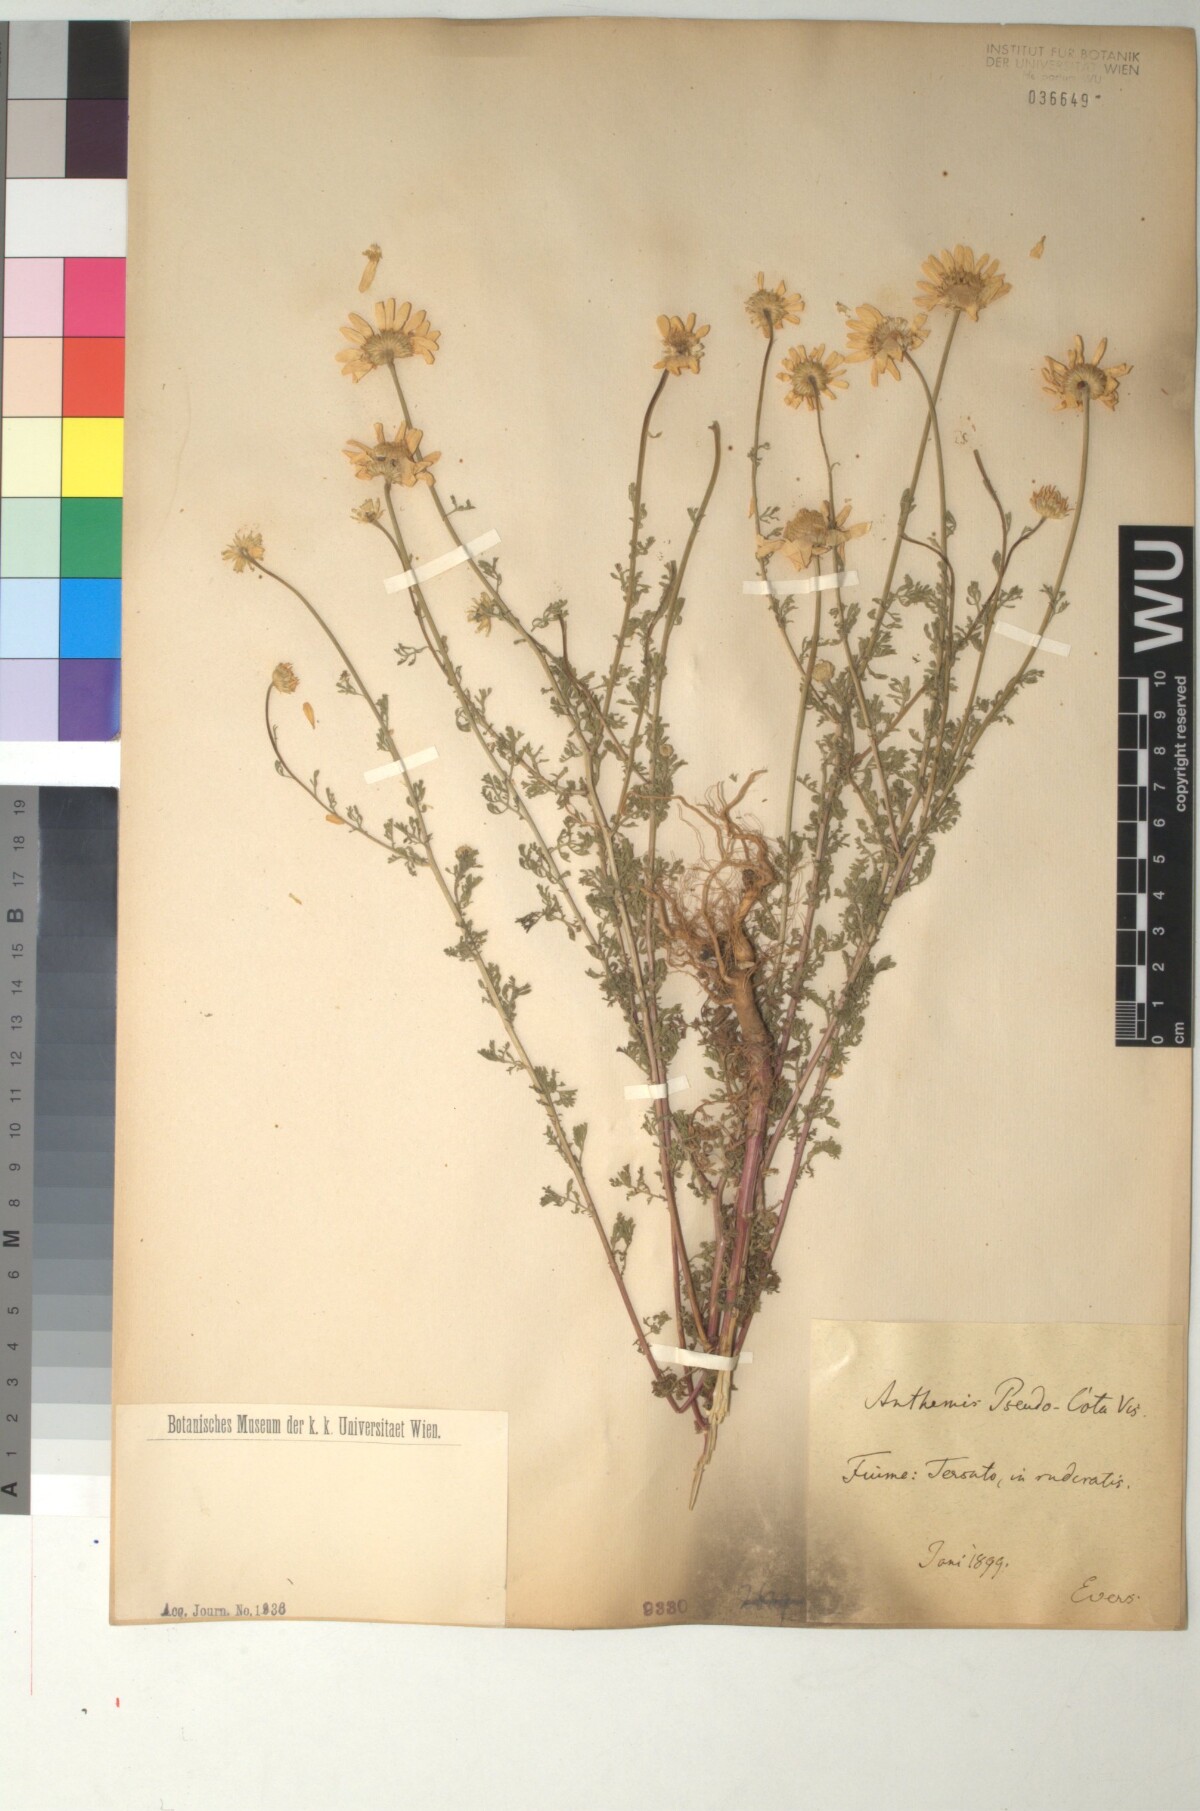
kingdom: Plantae
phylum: Tracheophyta
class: Magnoliopsida
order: Asterales
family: Asteraceae
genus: Cota
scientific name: Cota segetalis
